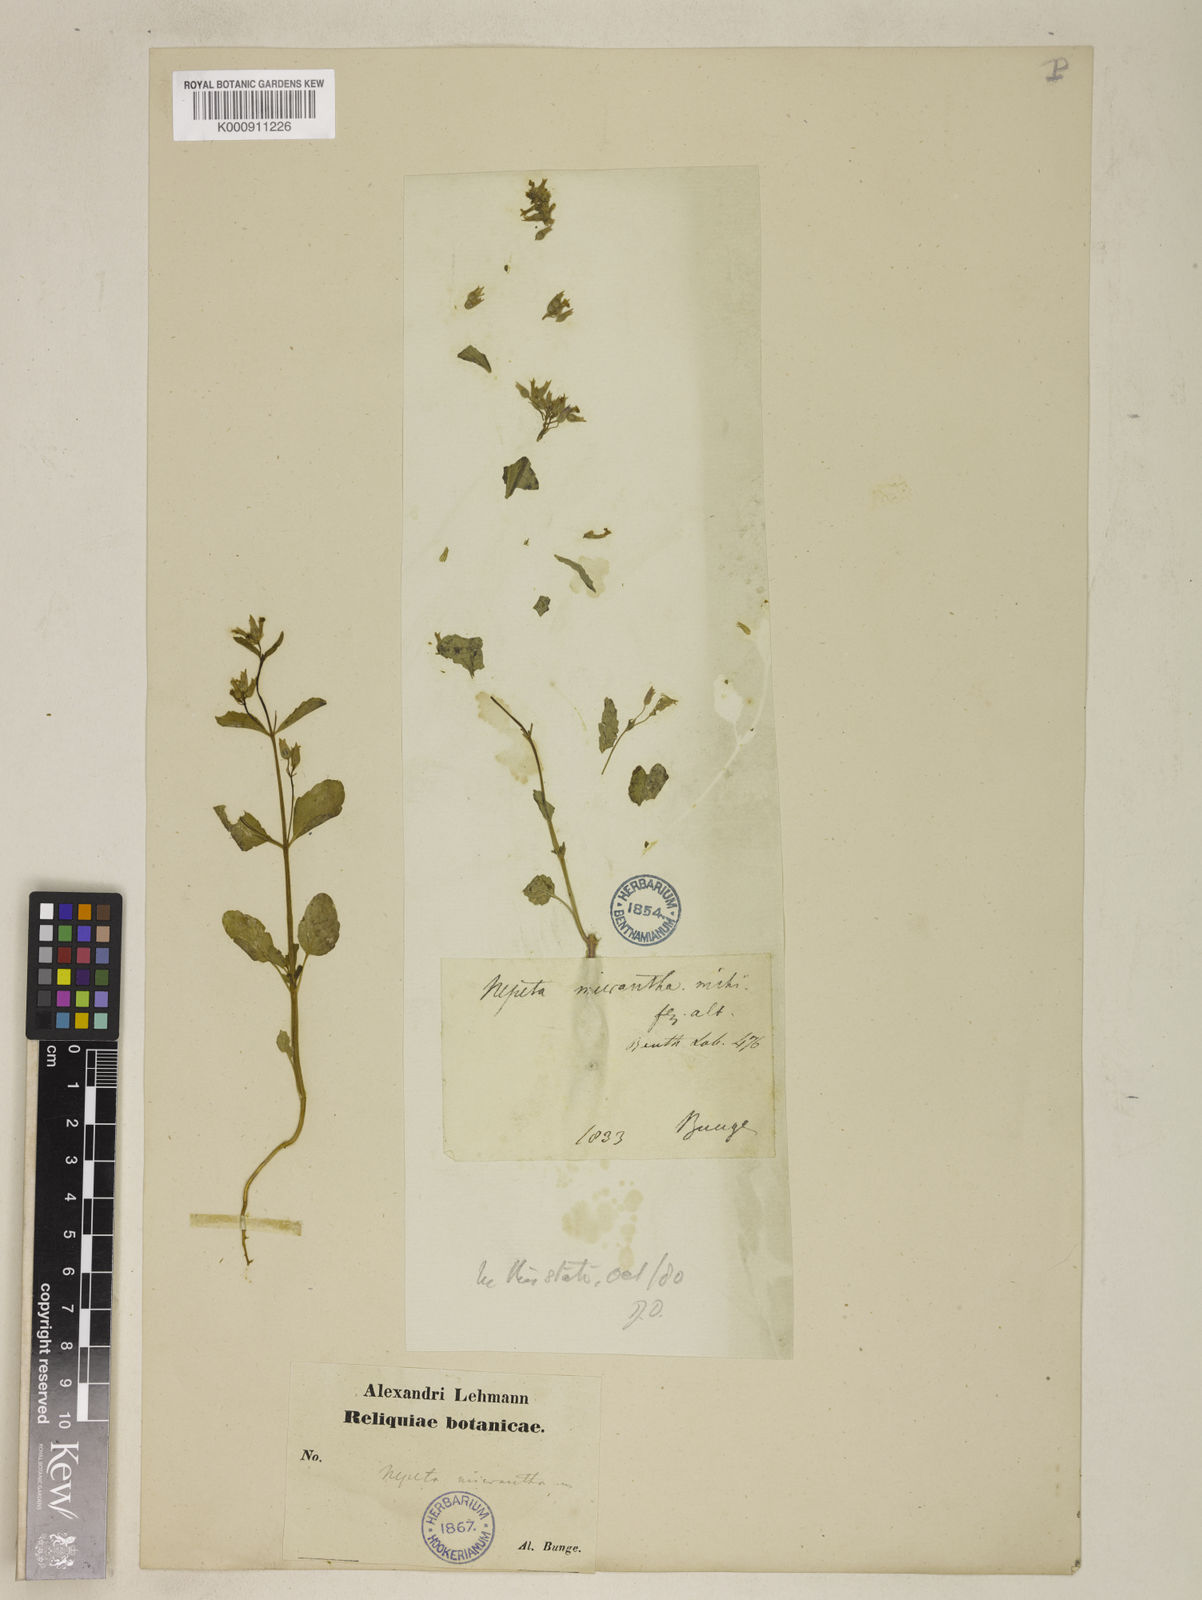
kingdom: Plantae
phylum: Tracheophyta
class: Magnoliopsida
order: Lamiales
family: Lamiaceae
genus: Nepeta
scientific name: Nepeta micrantha
